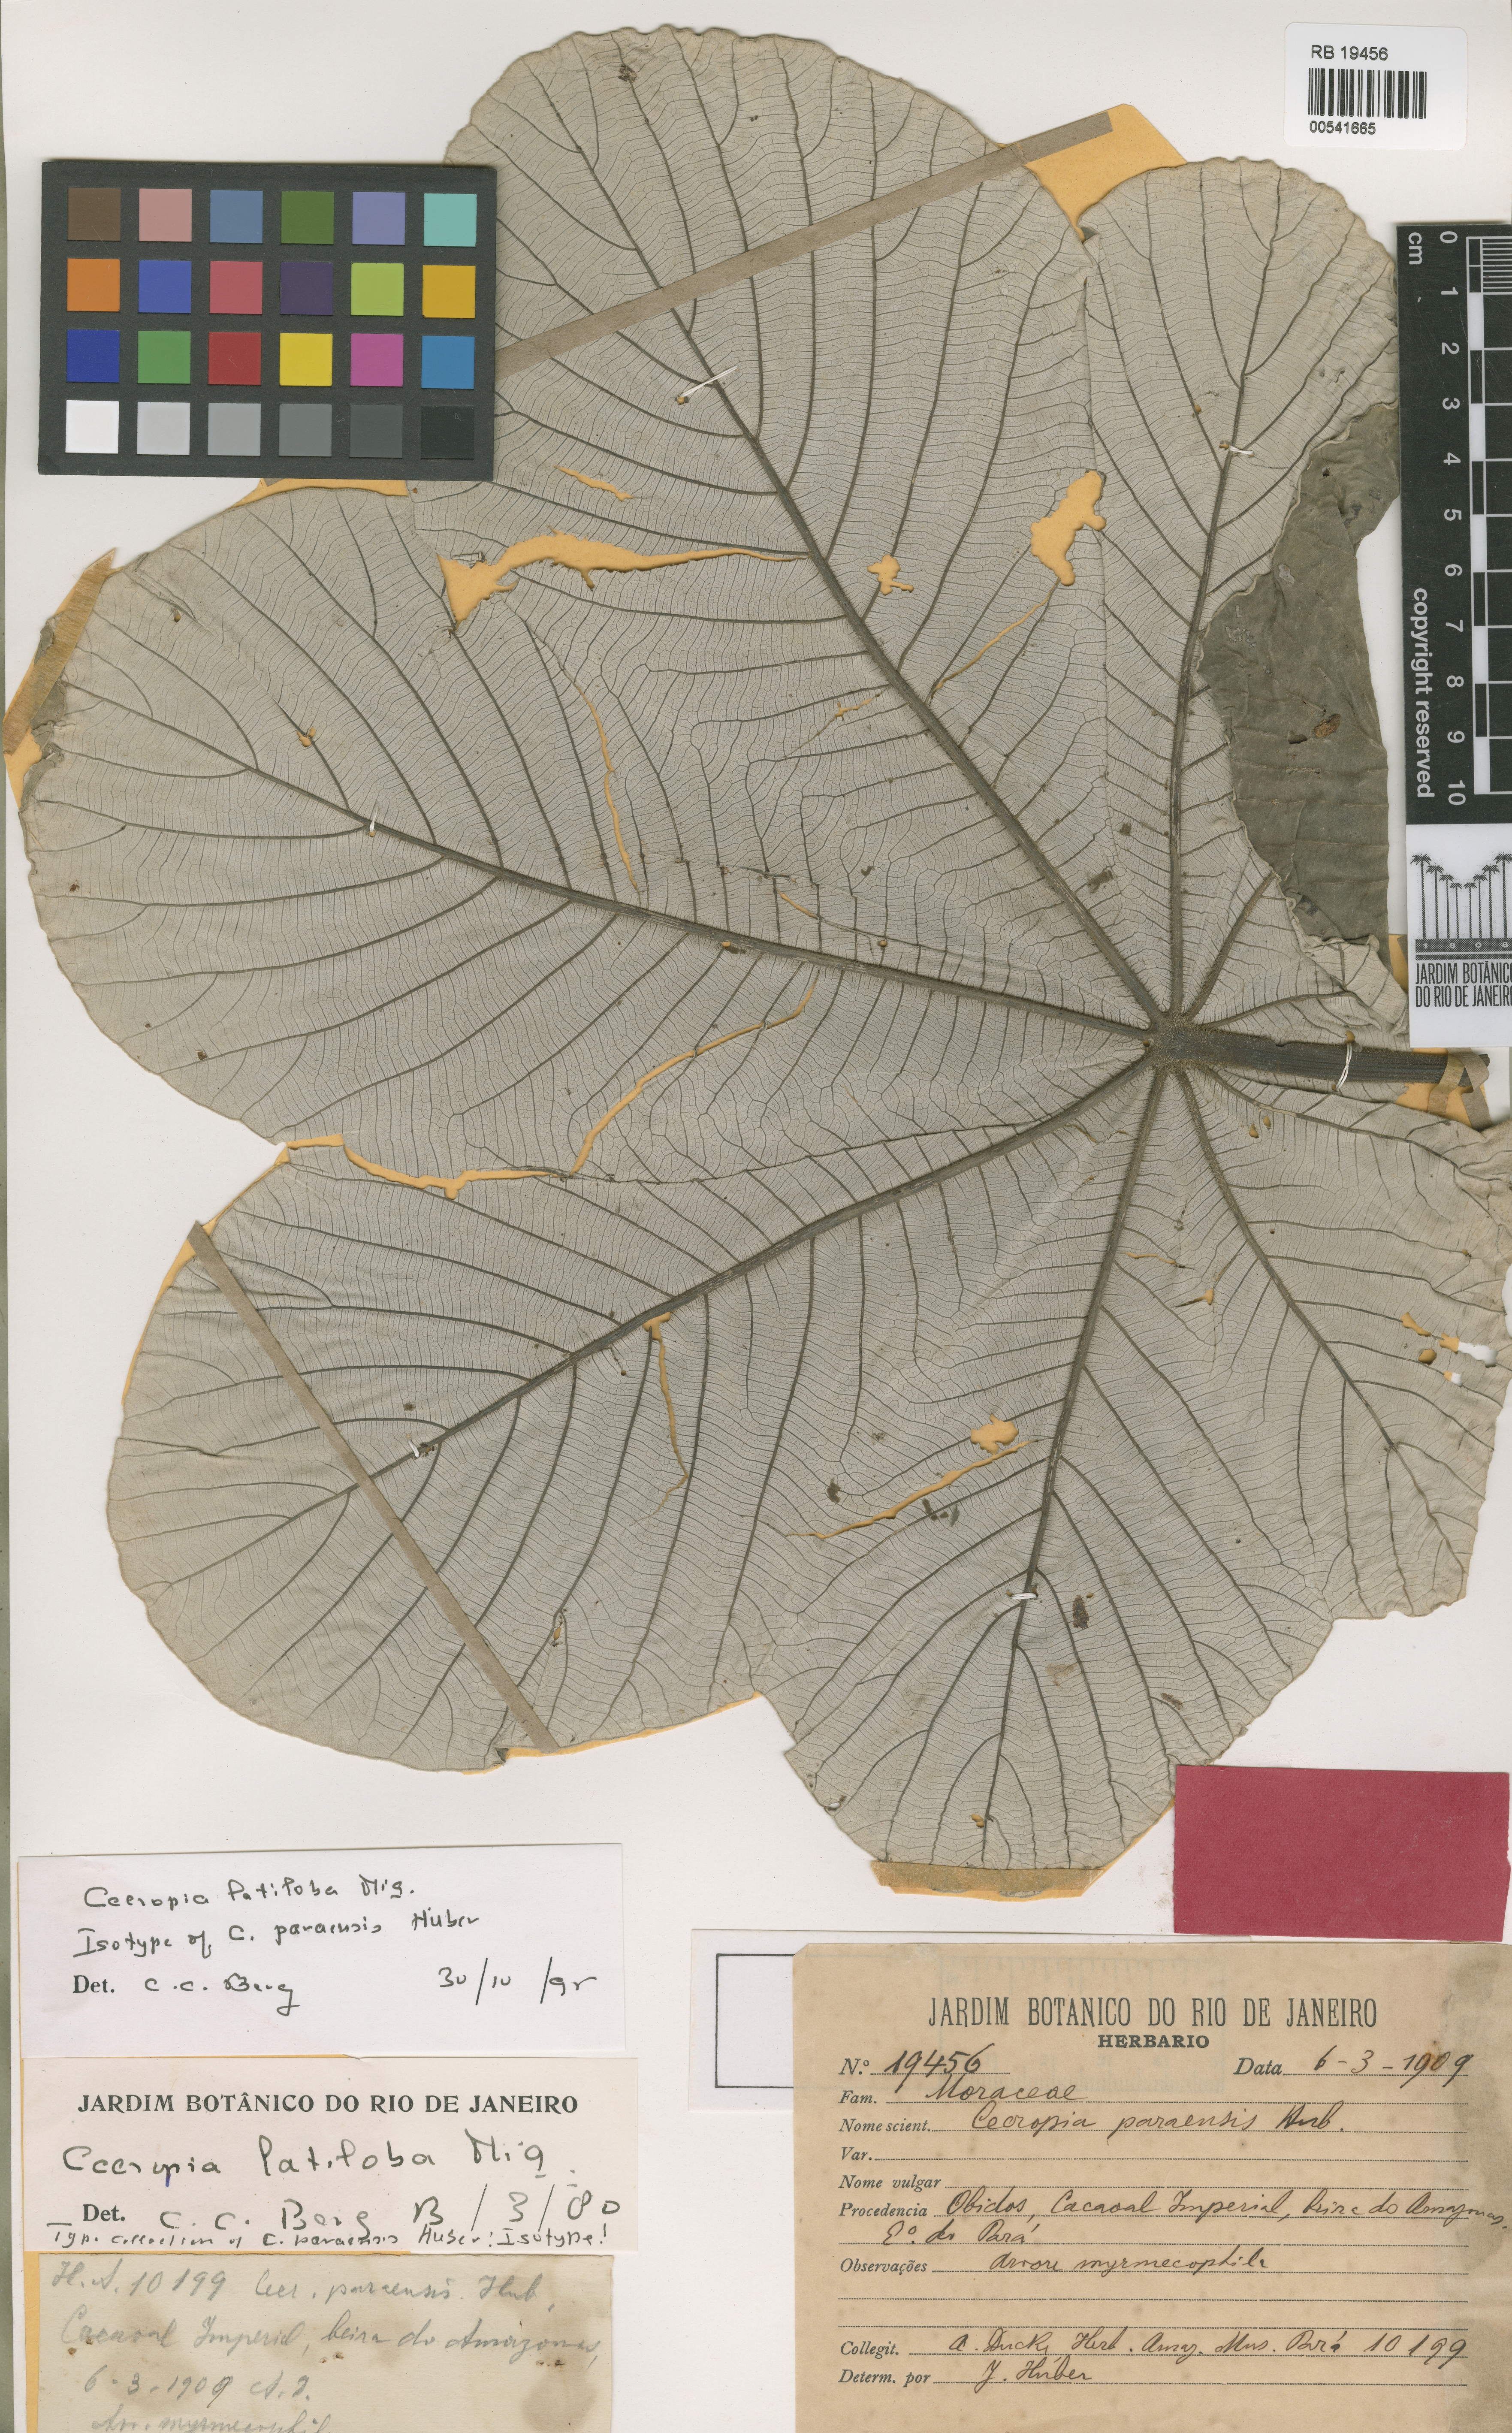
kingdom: Plantae
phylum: Tracheophyta
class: Magnoliopsida
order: Rosales
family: Urticaceae
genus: Cecropia
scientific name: Cecropia latiloba
